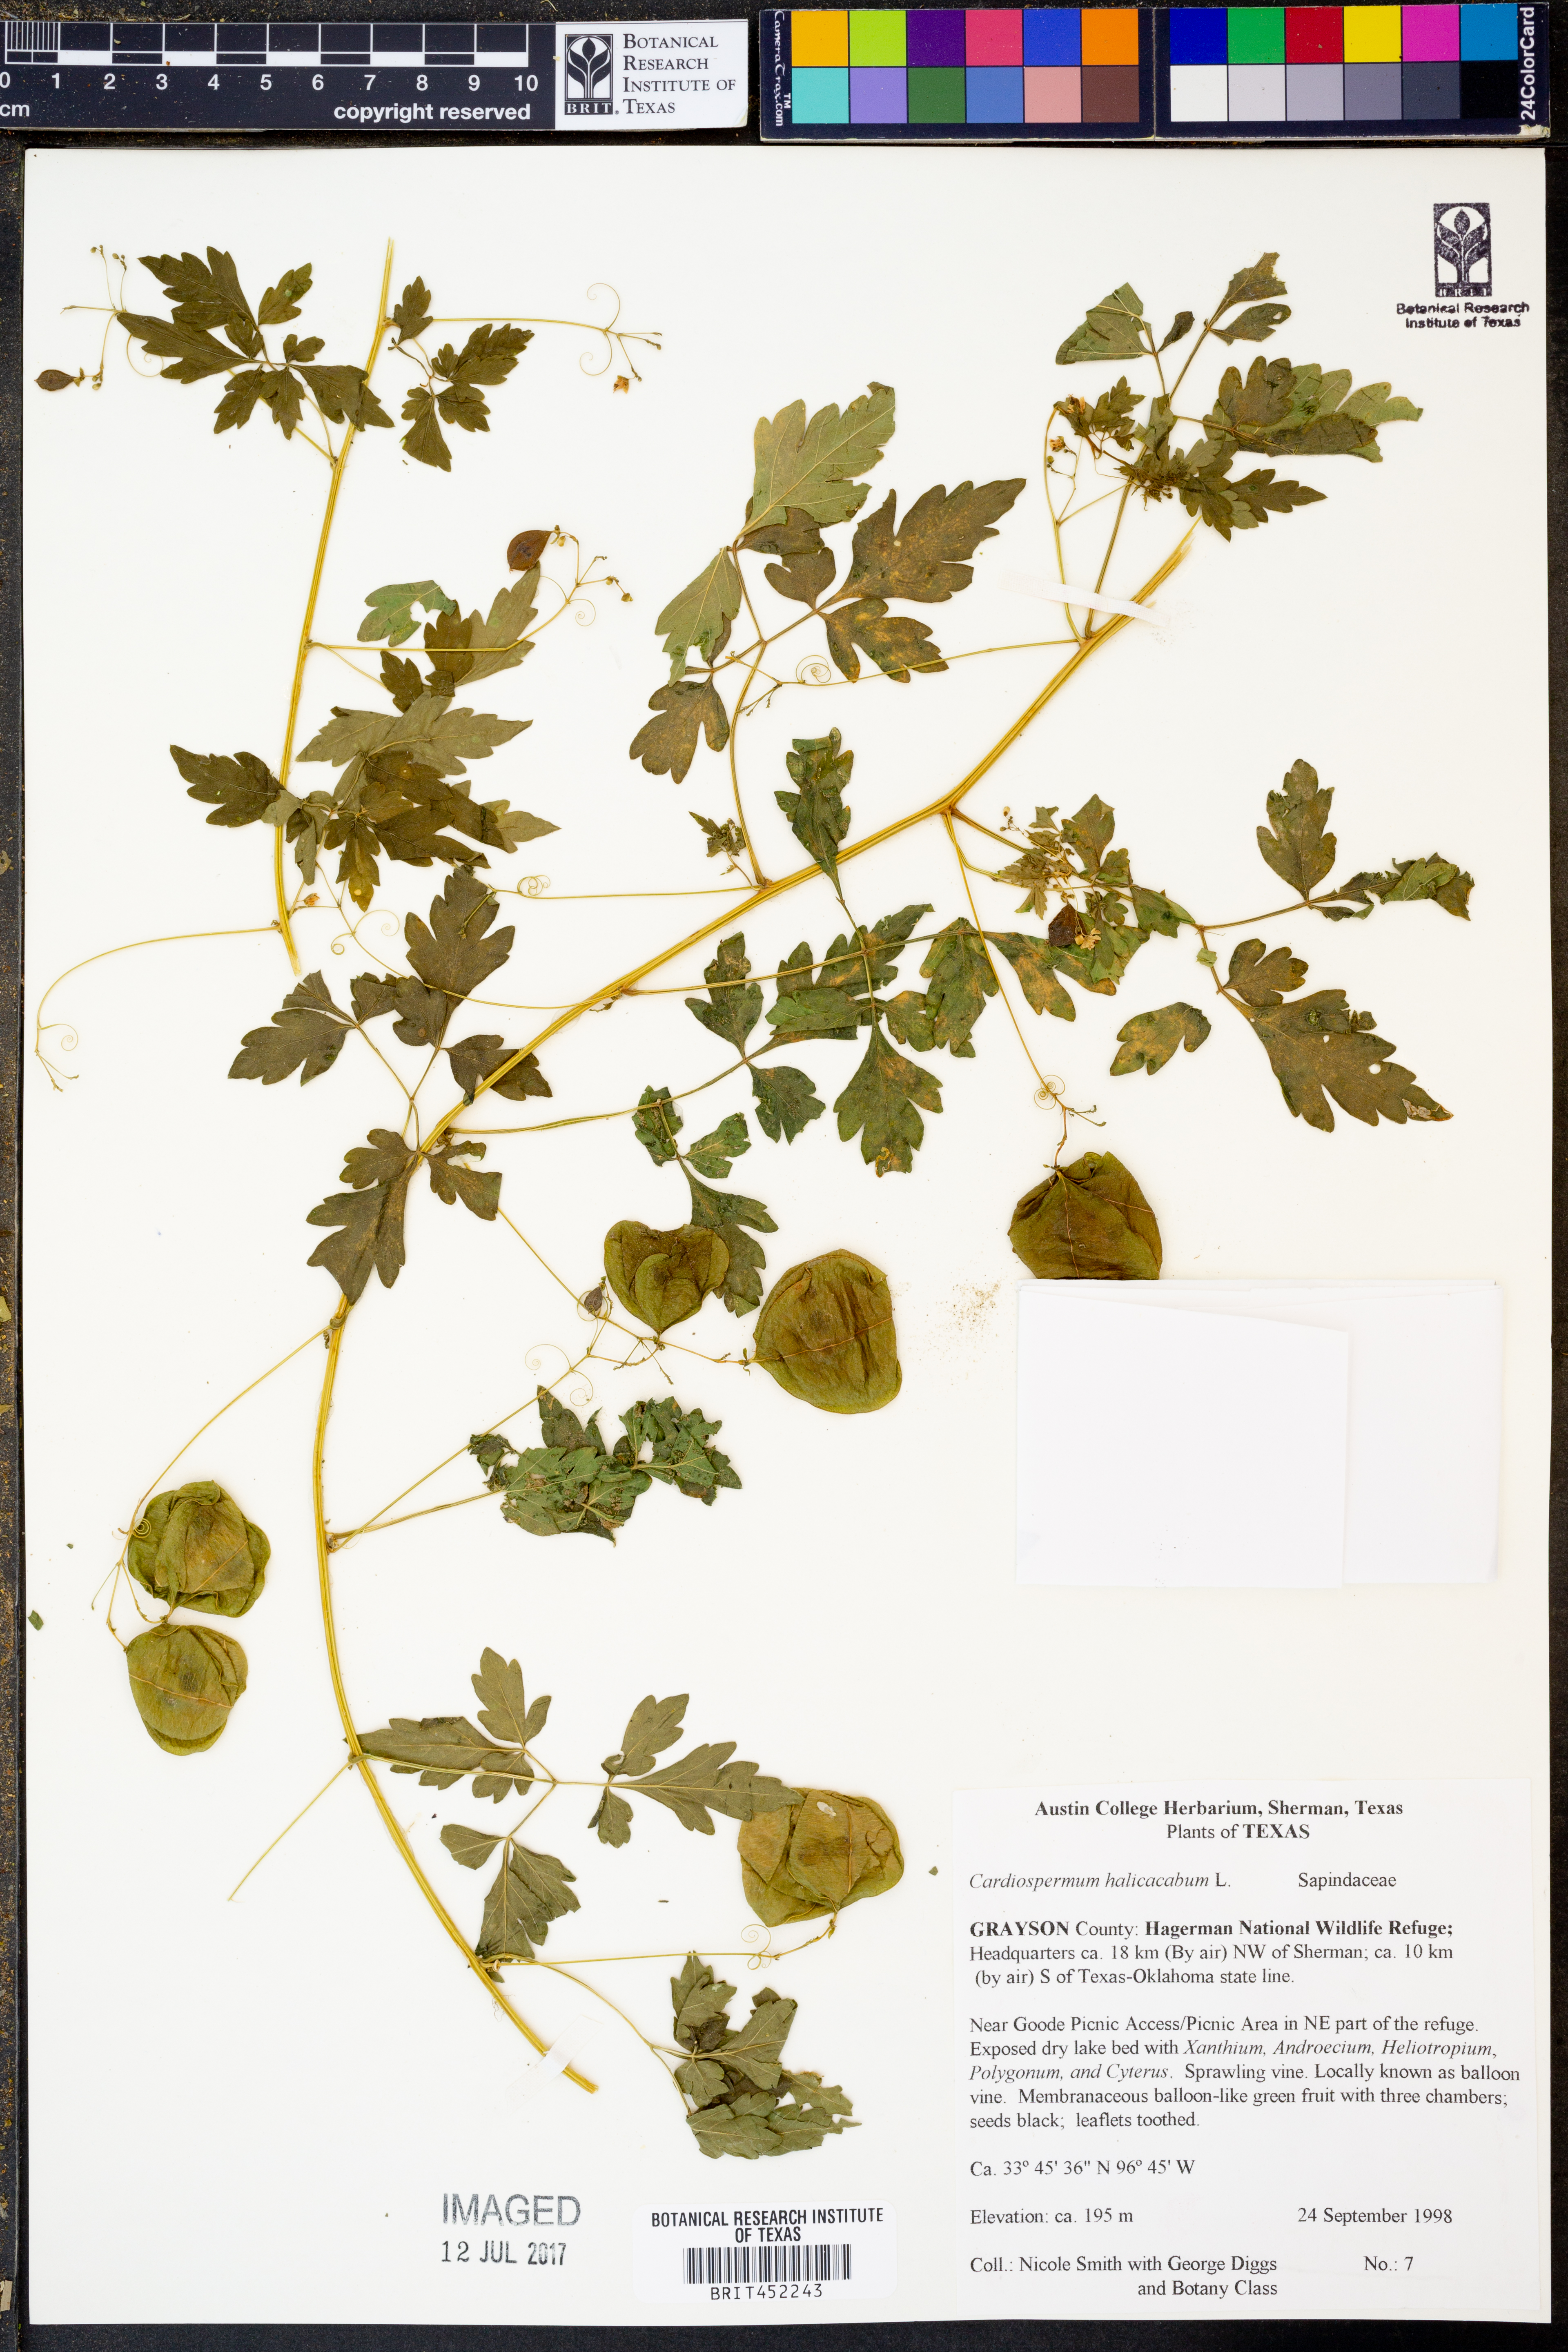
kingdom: Plantae
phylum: Tracheophyta
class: Magnoliopsida
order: Sapindales
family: Sapindaceae
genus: Cardiospermum
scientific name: Cardiospermum halicacabum
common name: Balloon vine
